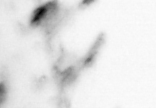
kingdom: Animalia
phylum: Arthropoda
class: Copepoda
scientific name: Copepoda
